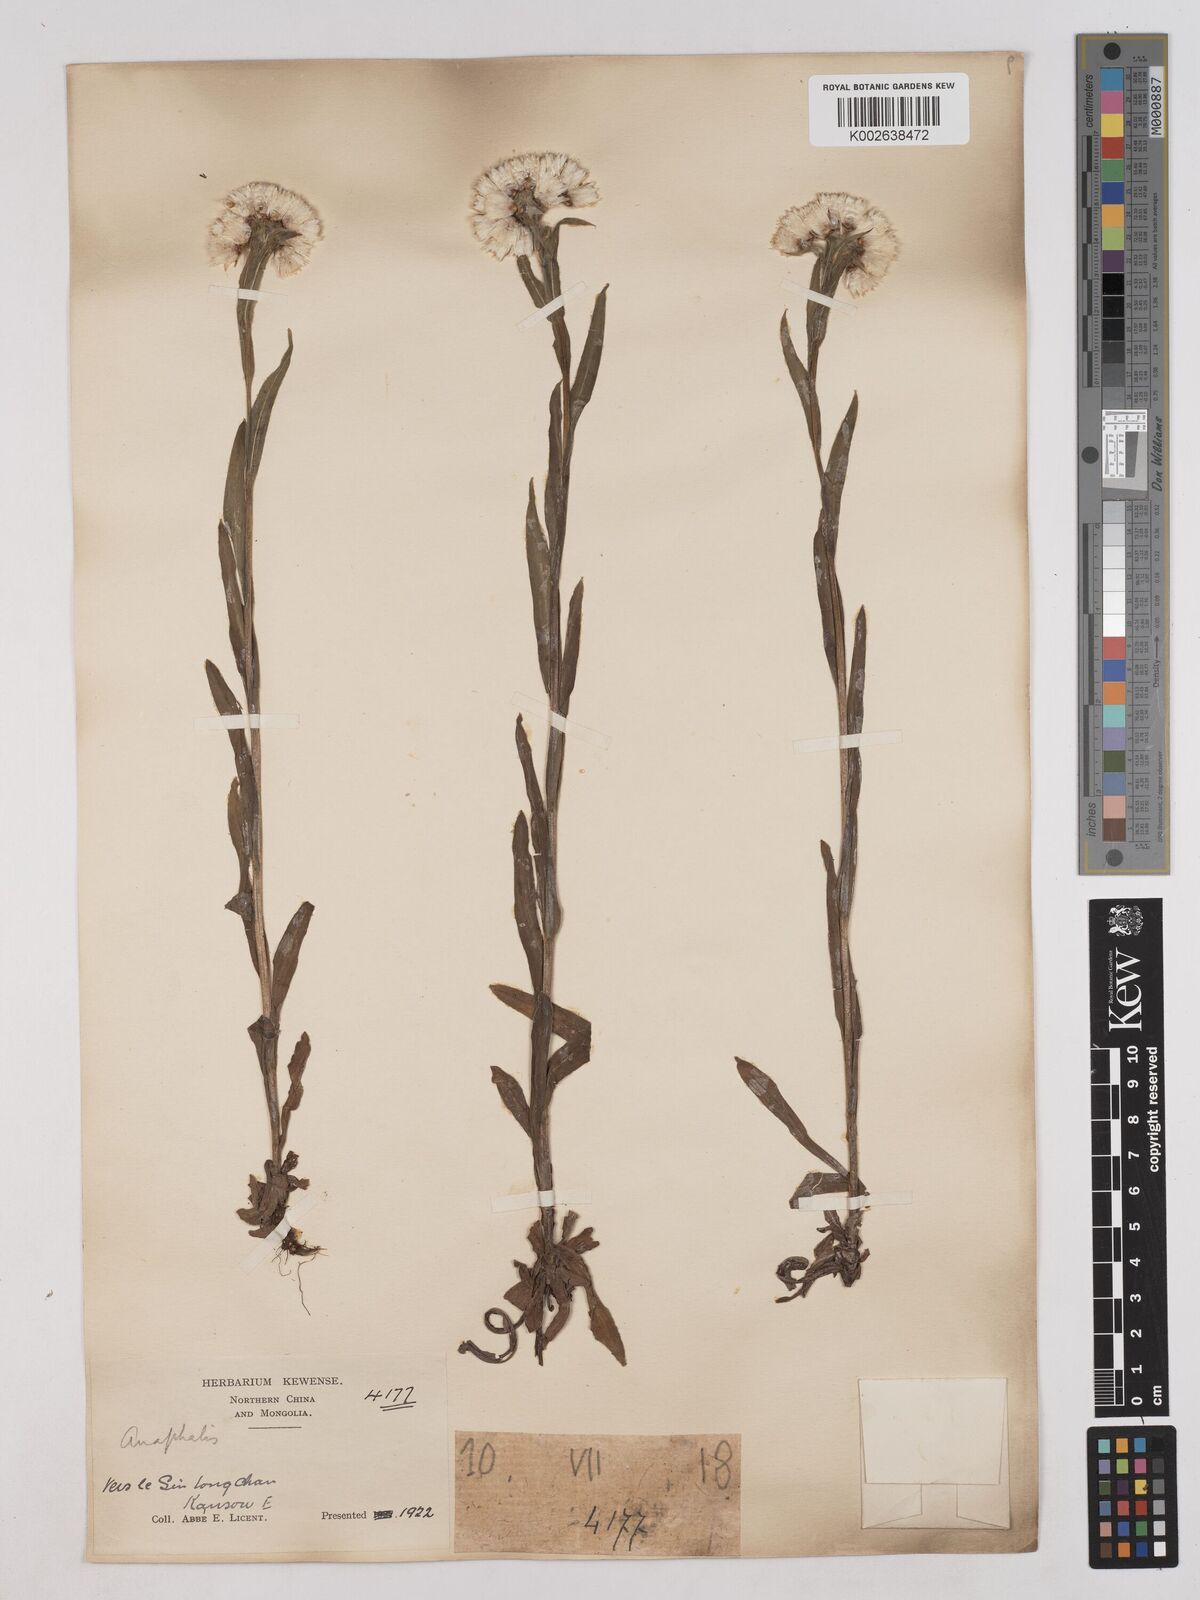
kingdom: Plantae
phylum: Tracheophyta
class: Magnoliopsida
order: Asterales
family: Asteraceae
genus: Anaphalis
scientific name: Anaphalis hancockii
